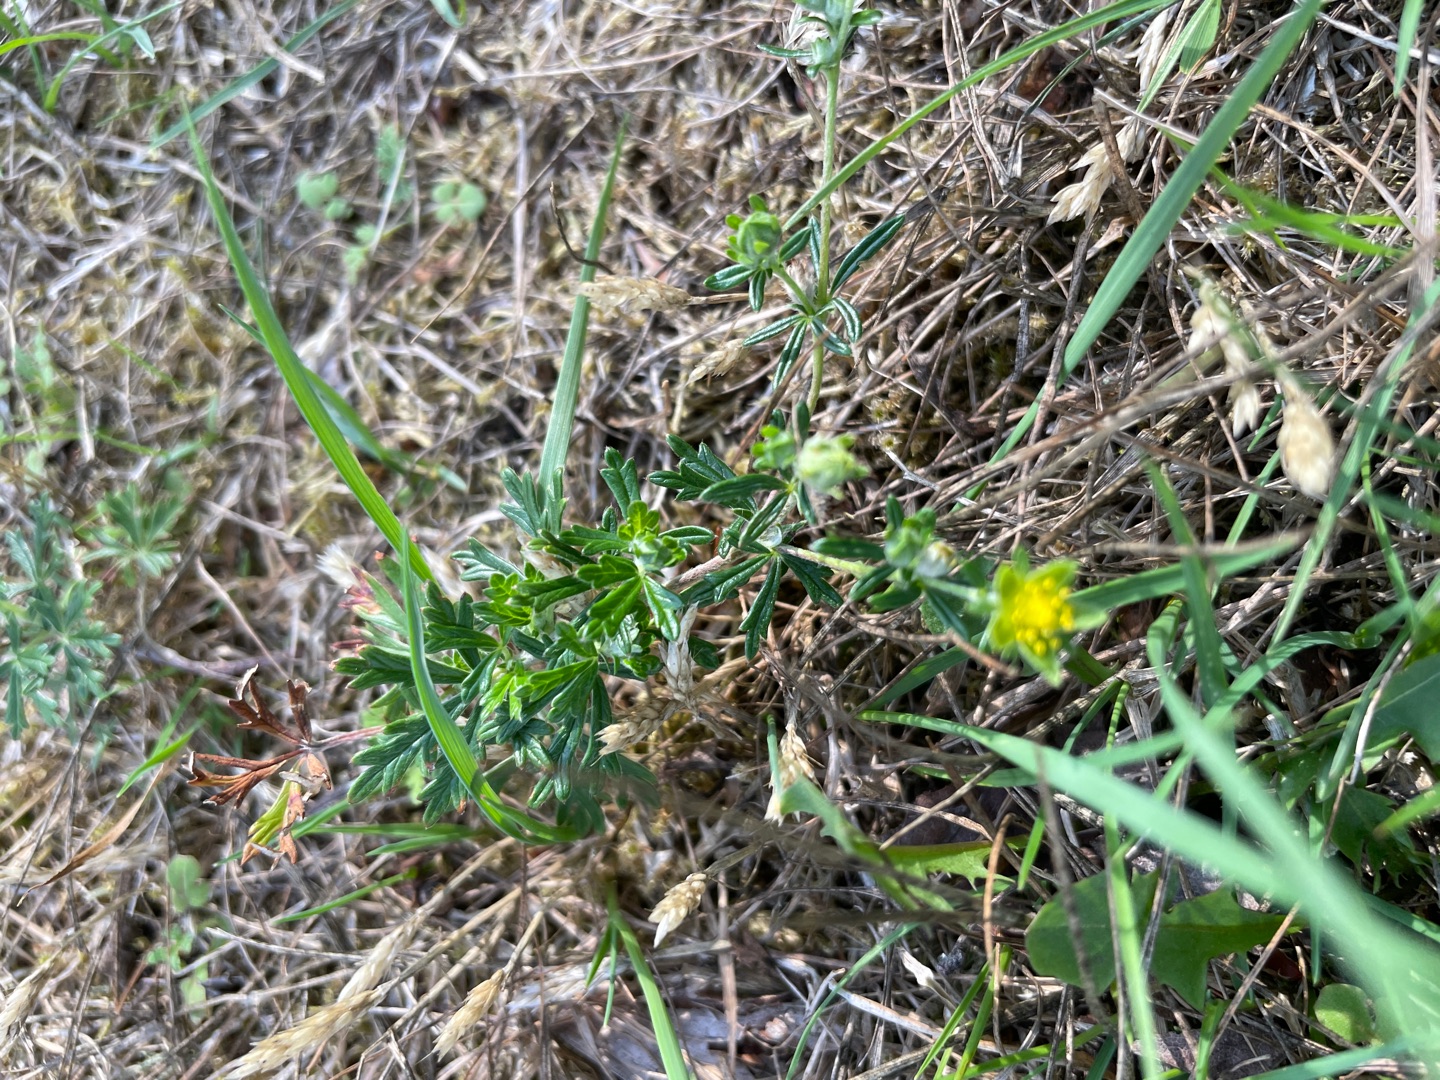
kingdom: Plantae
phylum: Tracheophyta
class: Magnoliopsida
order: Rosales
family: Rosaceae
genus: Potentilla
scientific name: Potentilla argentea
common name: Sølv-potentil
